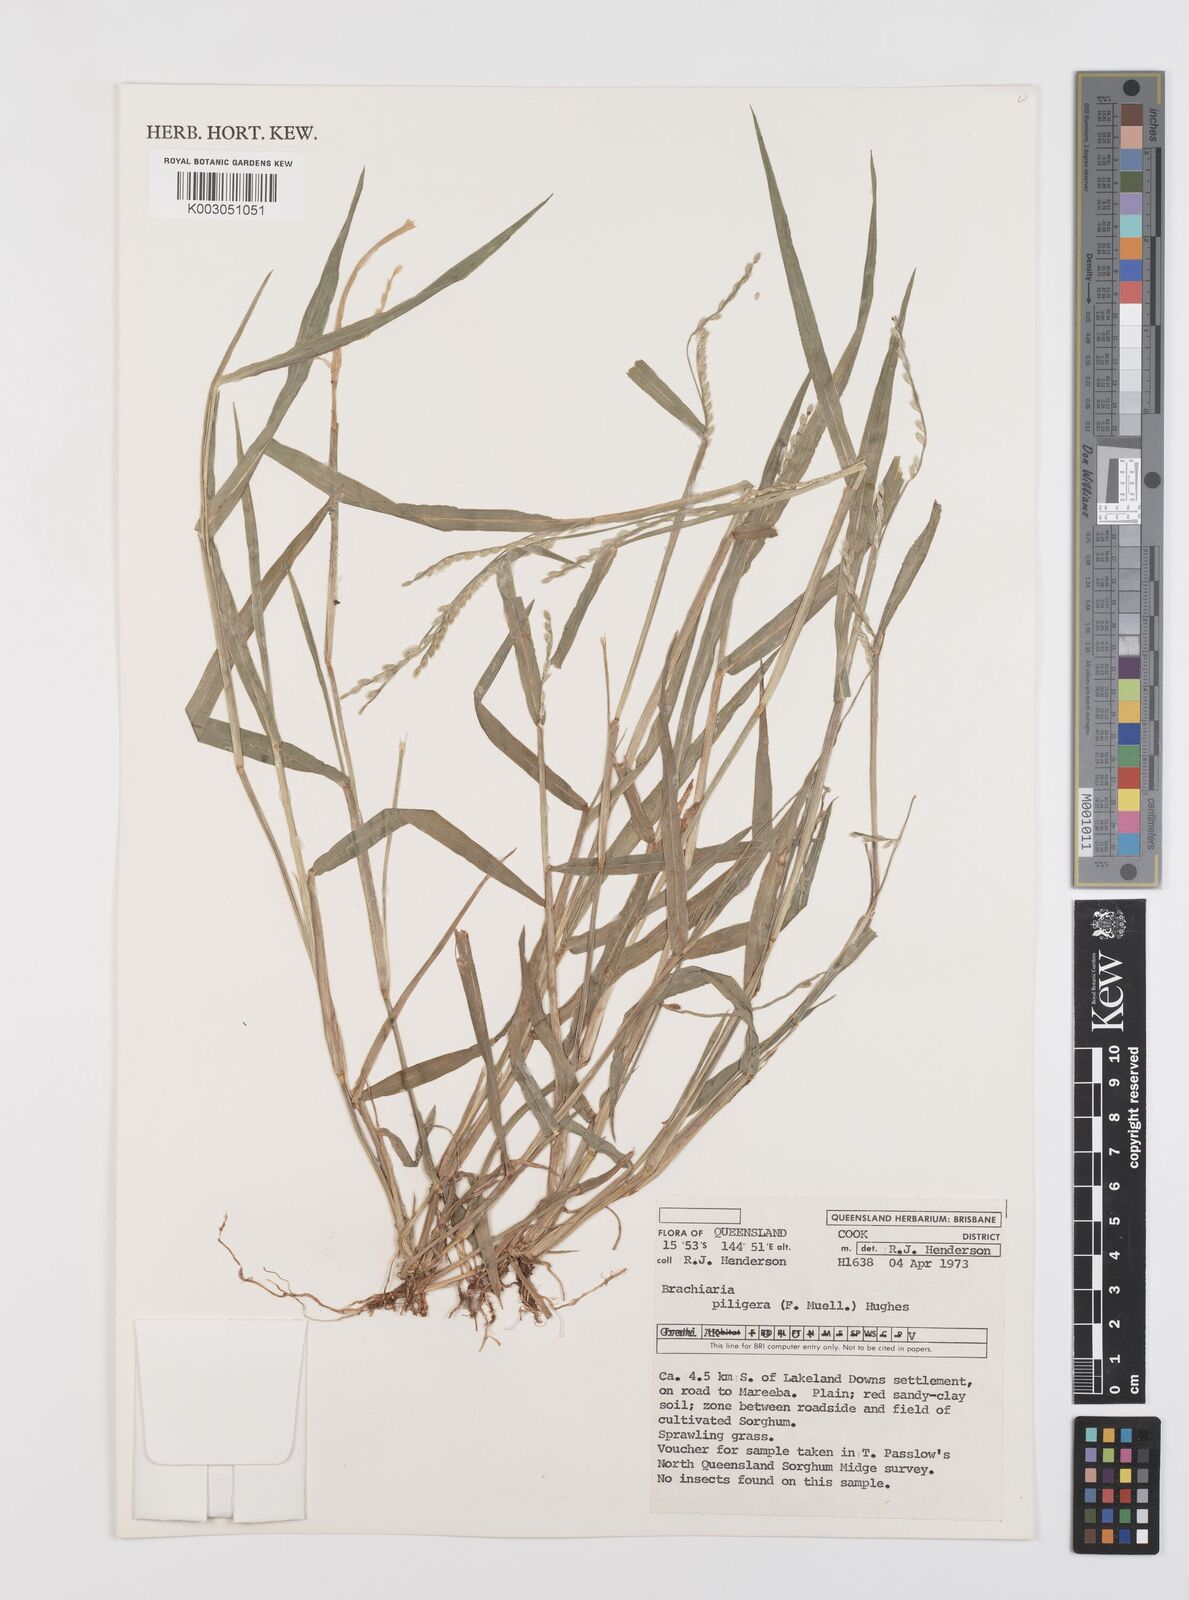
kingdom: Plantae
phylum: Tracheophyta
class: Liliopsida
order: Poales
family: Poaceae
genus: Urochloa
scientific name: Urochloa piligera
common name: Wattle signalgrass
